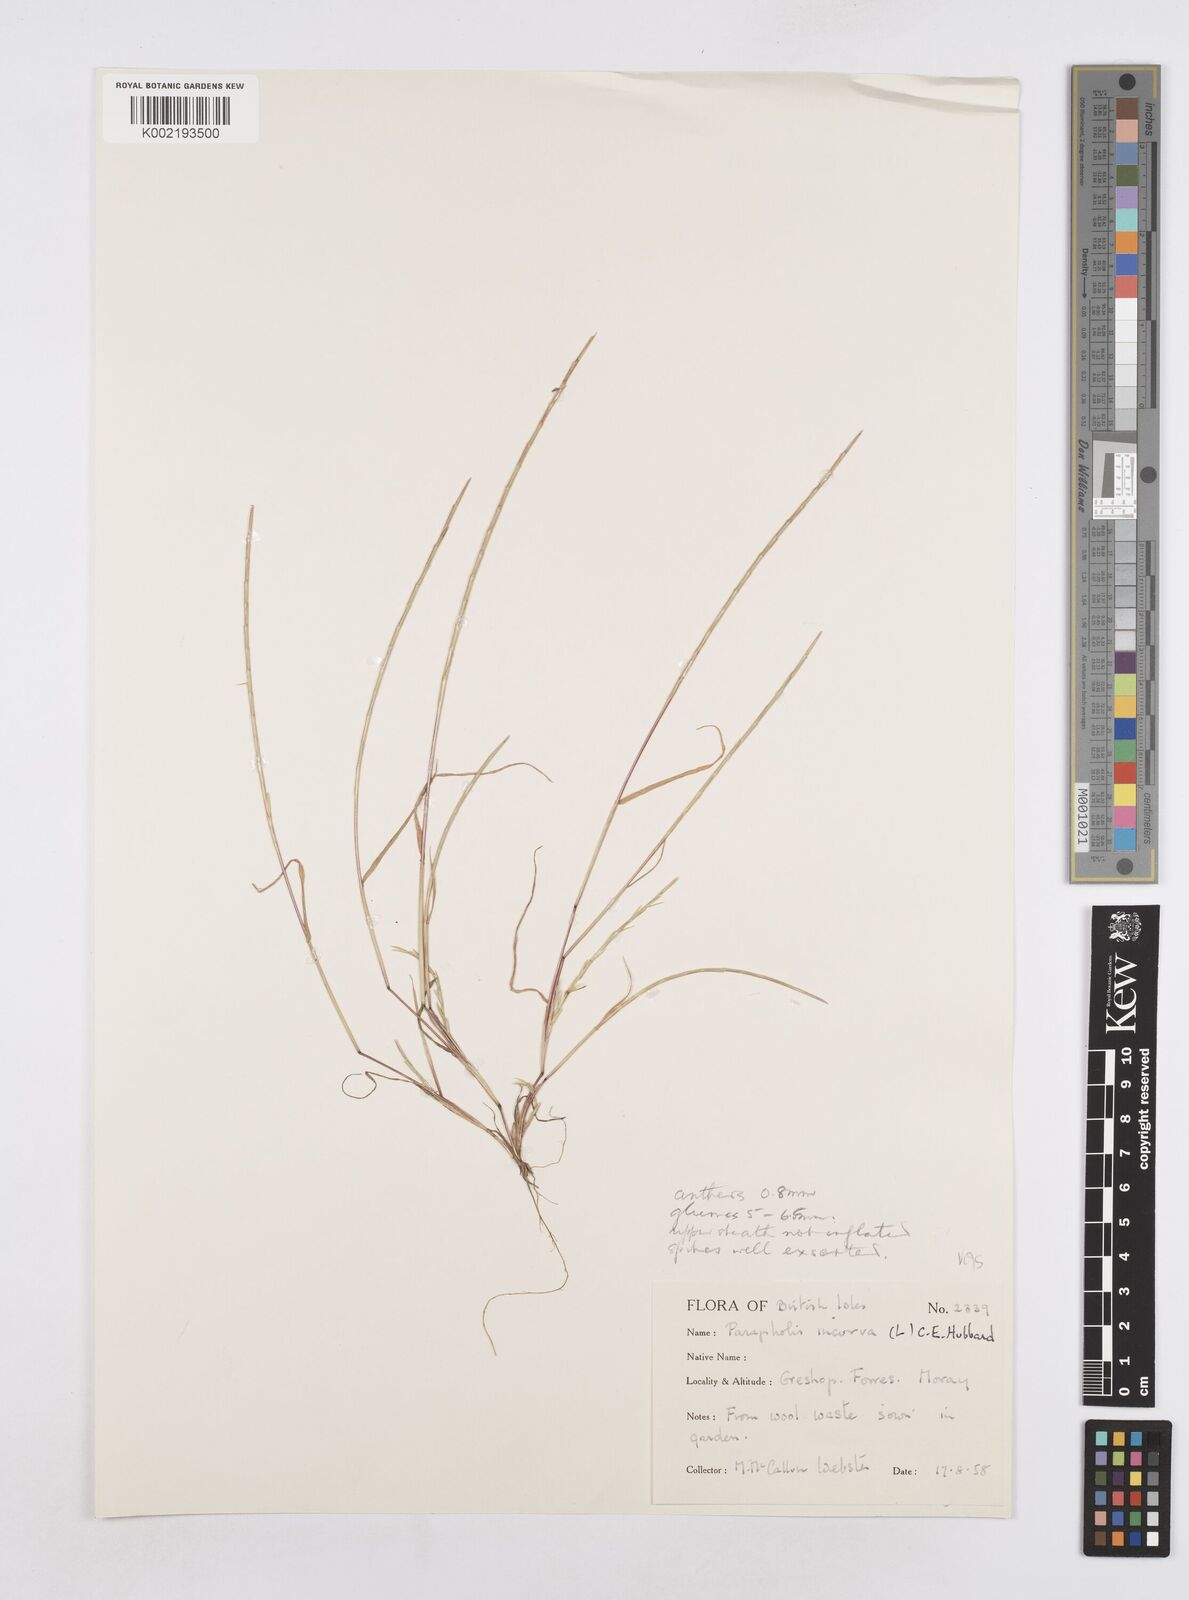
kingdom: Plantae
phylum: Tracheophyta
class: Liliopsida
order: Poales
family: Poaceae
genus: Parapholis
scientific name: Parapholis incurva
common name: Curved sicklegrass
